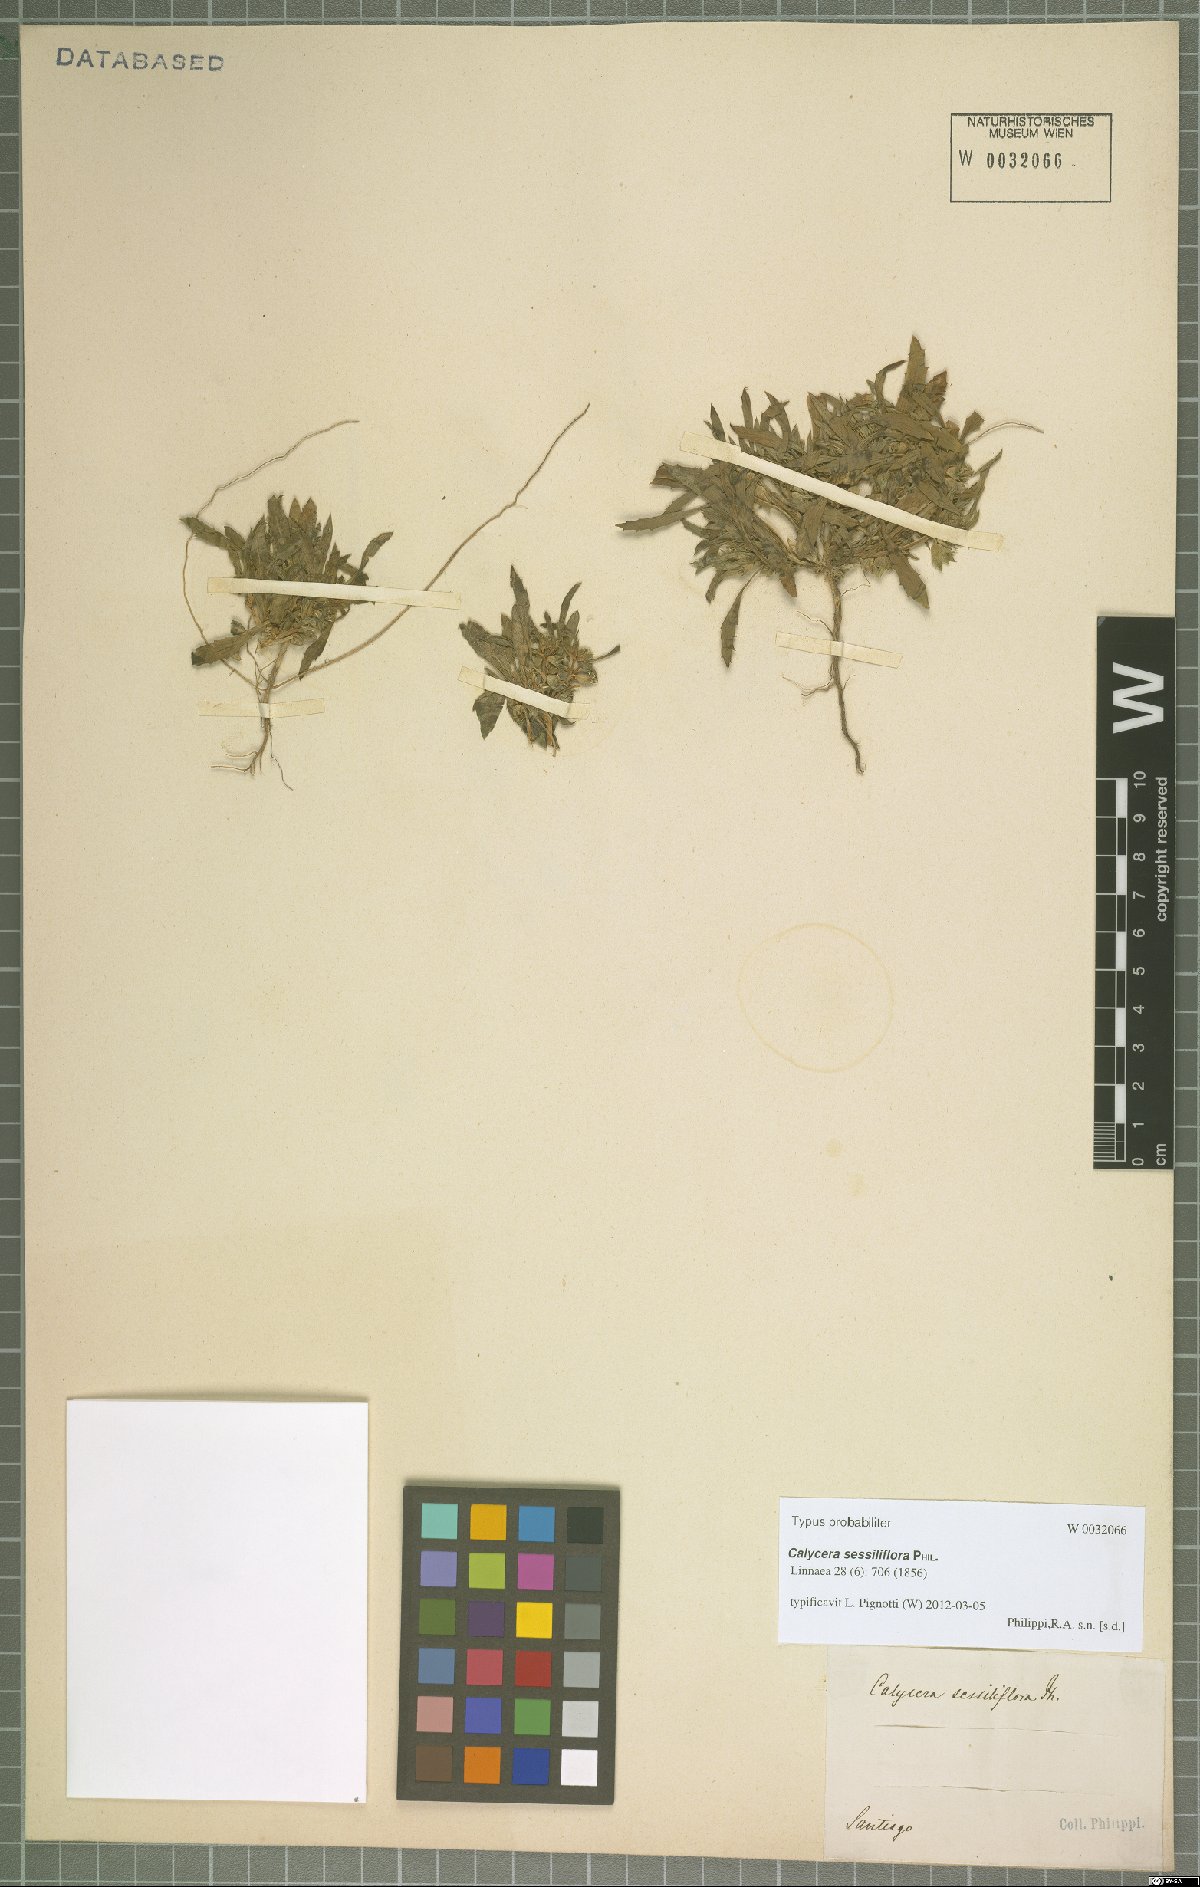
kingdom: Plantae
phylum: Tracheophyta
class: Magnoliopsida
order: Asterales
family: Calyceraceae
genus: Leucocera
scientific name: Leucocera sessiliflora
